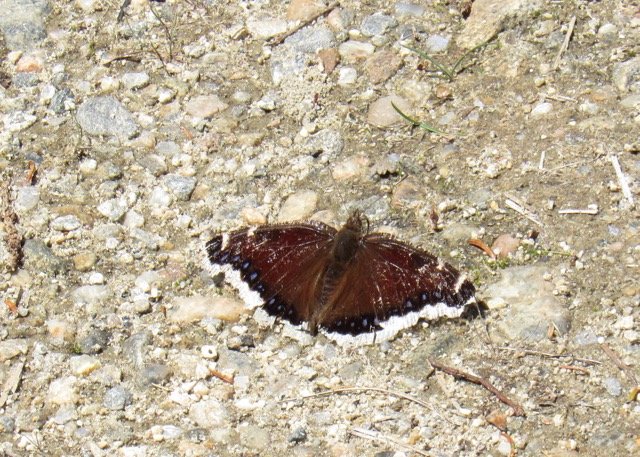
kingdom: Animalia
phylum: Arthropoda
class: Insecta
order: Lepidoptera
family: Nymphalidae
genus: Nymphalis
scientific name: Nymphalis antiopa
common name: Mourning Cloak
